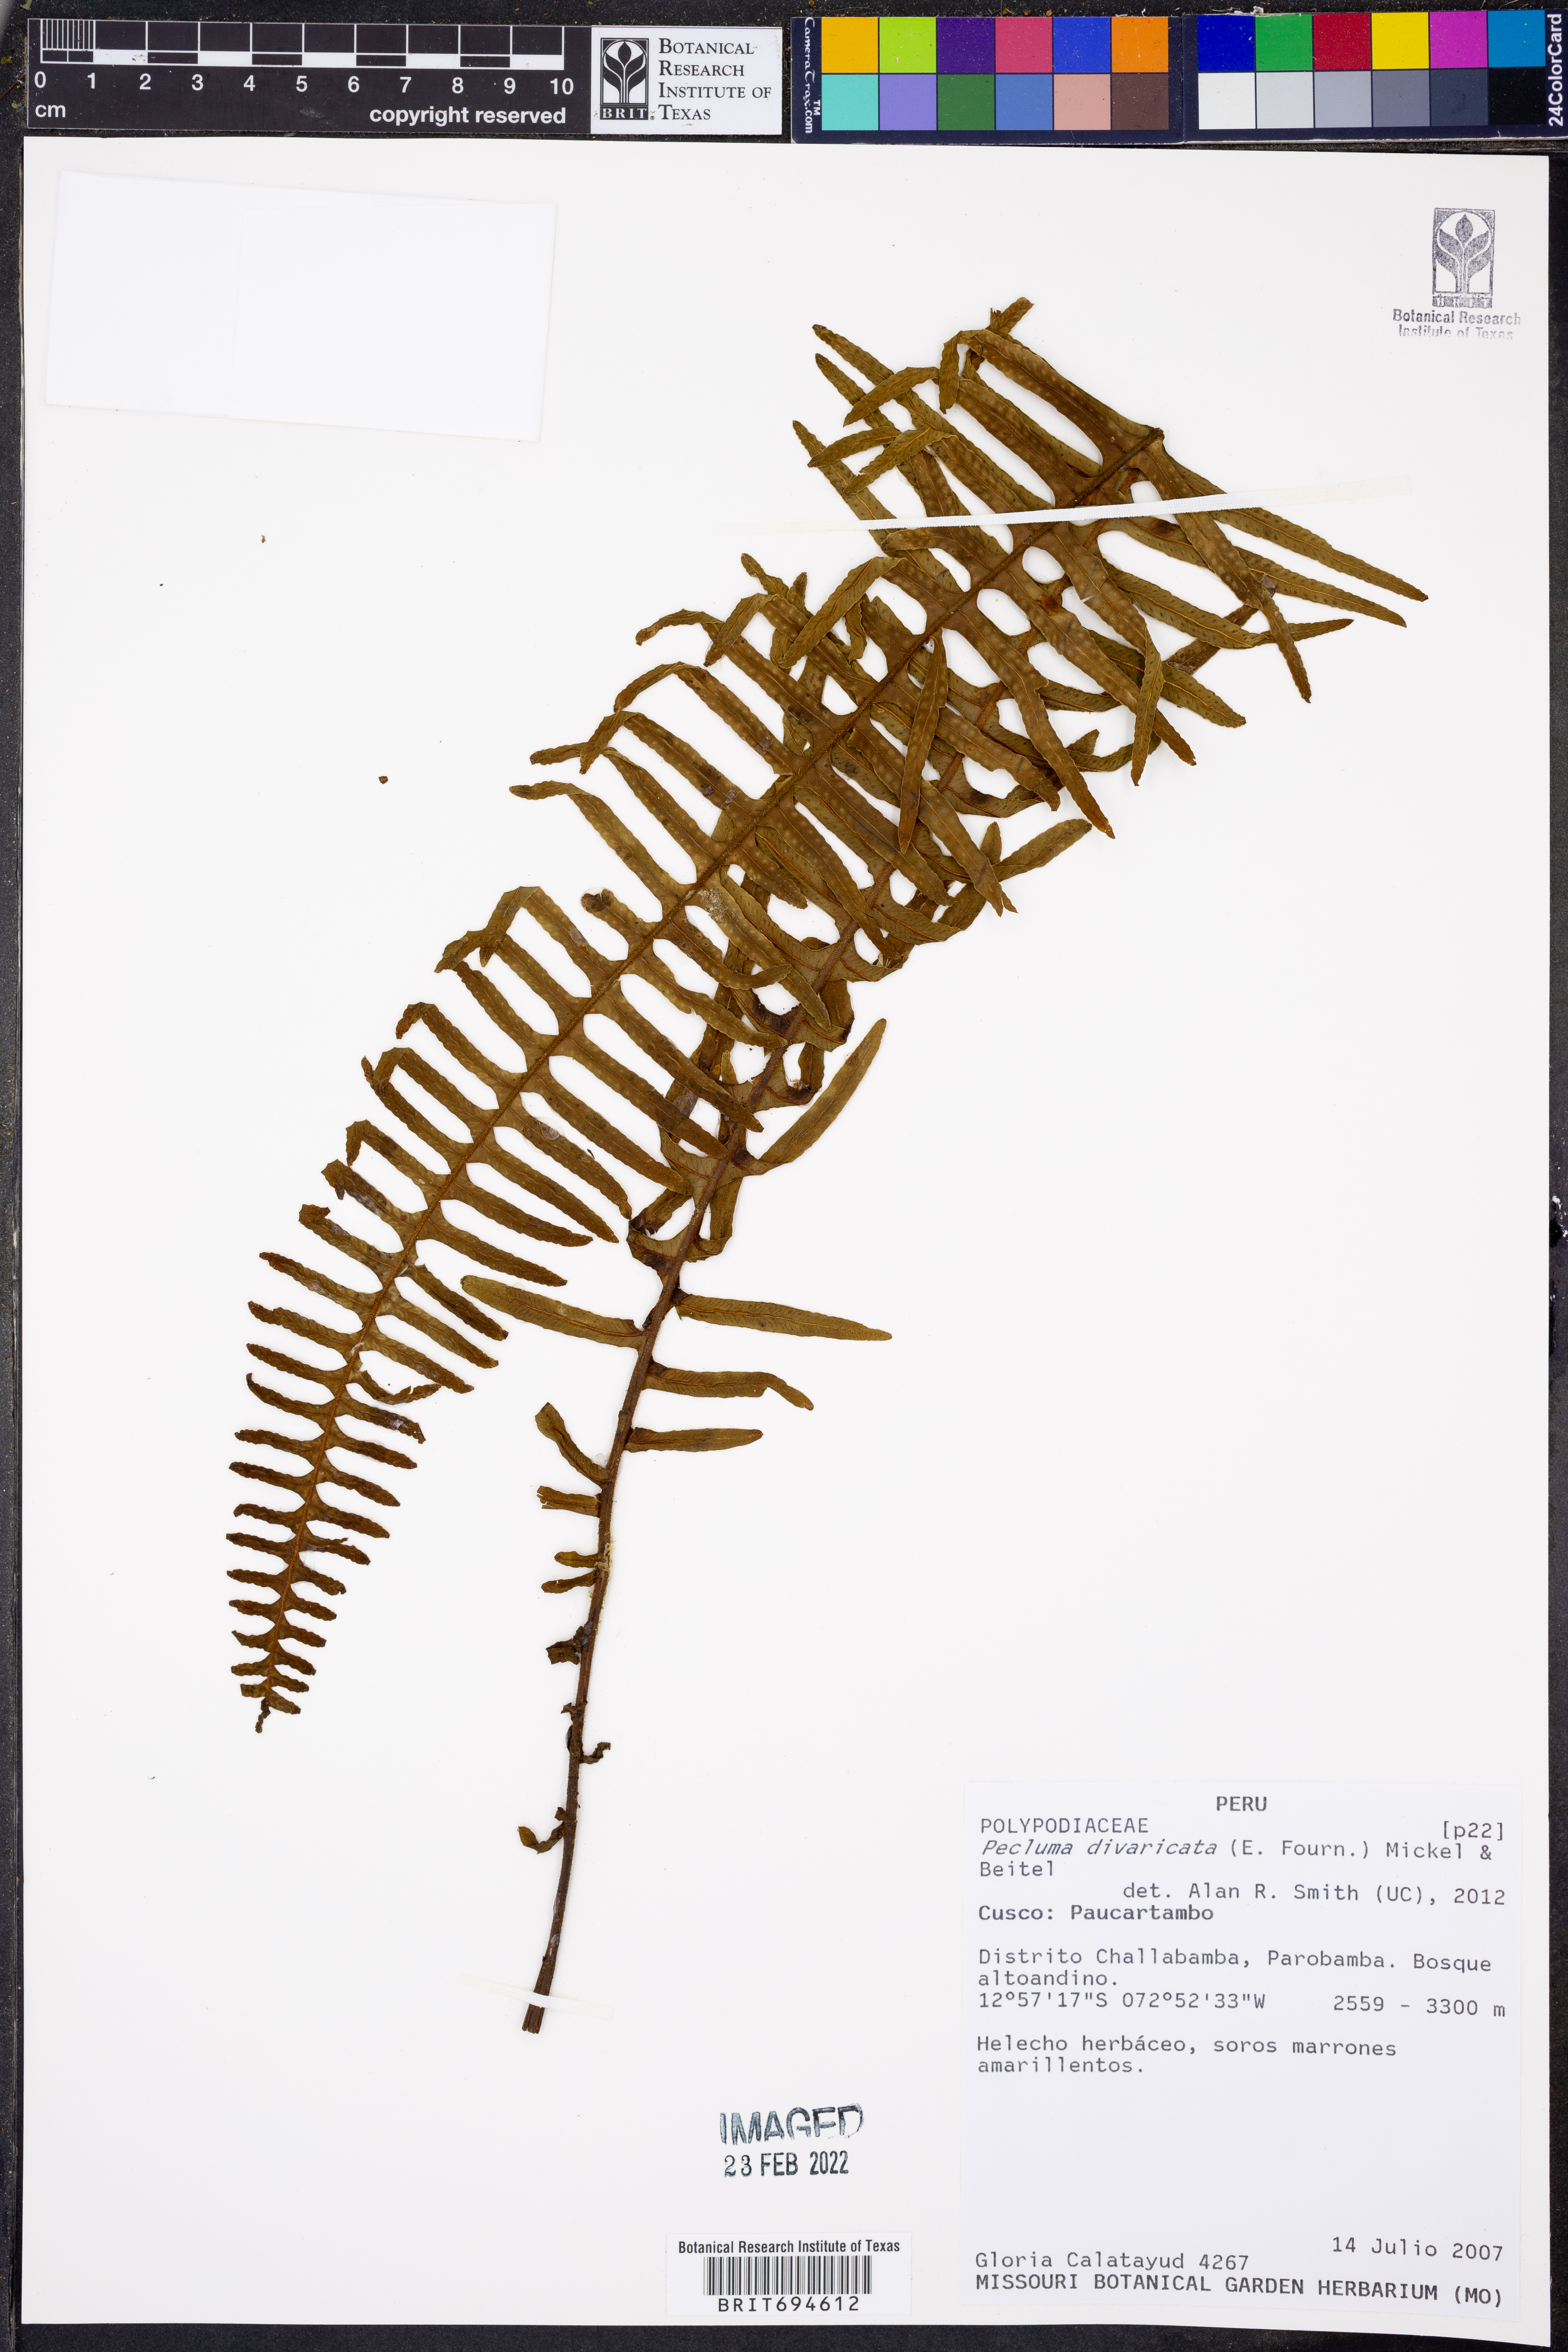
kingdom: Plantae
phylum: Tracheophyta
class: Polypodiopsida
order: Polypodiales
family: Polypodiaceae
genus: Pecluma
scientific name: Pecluma divaricata
